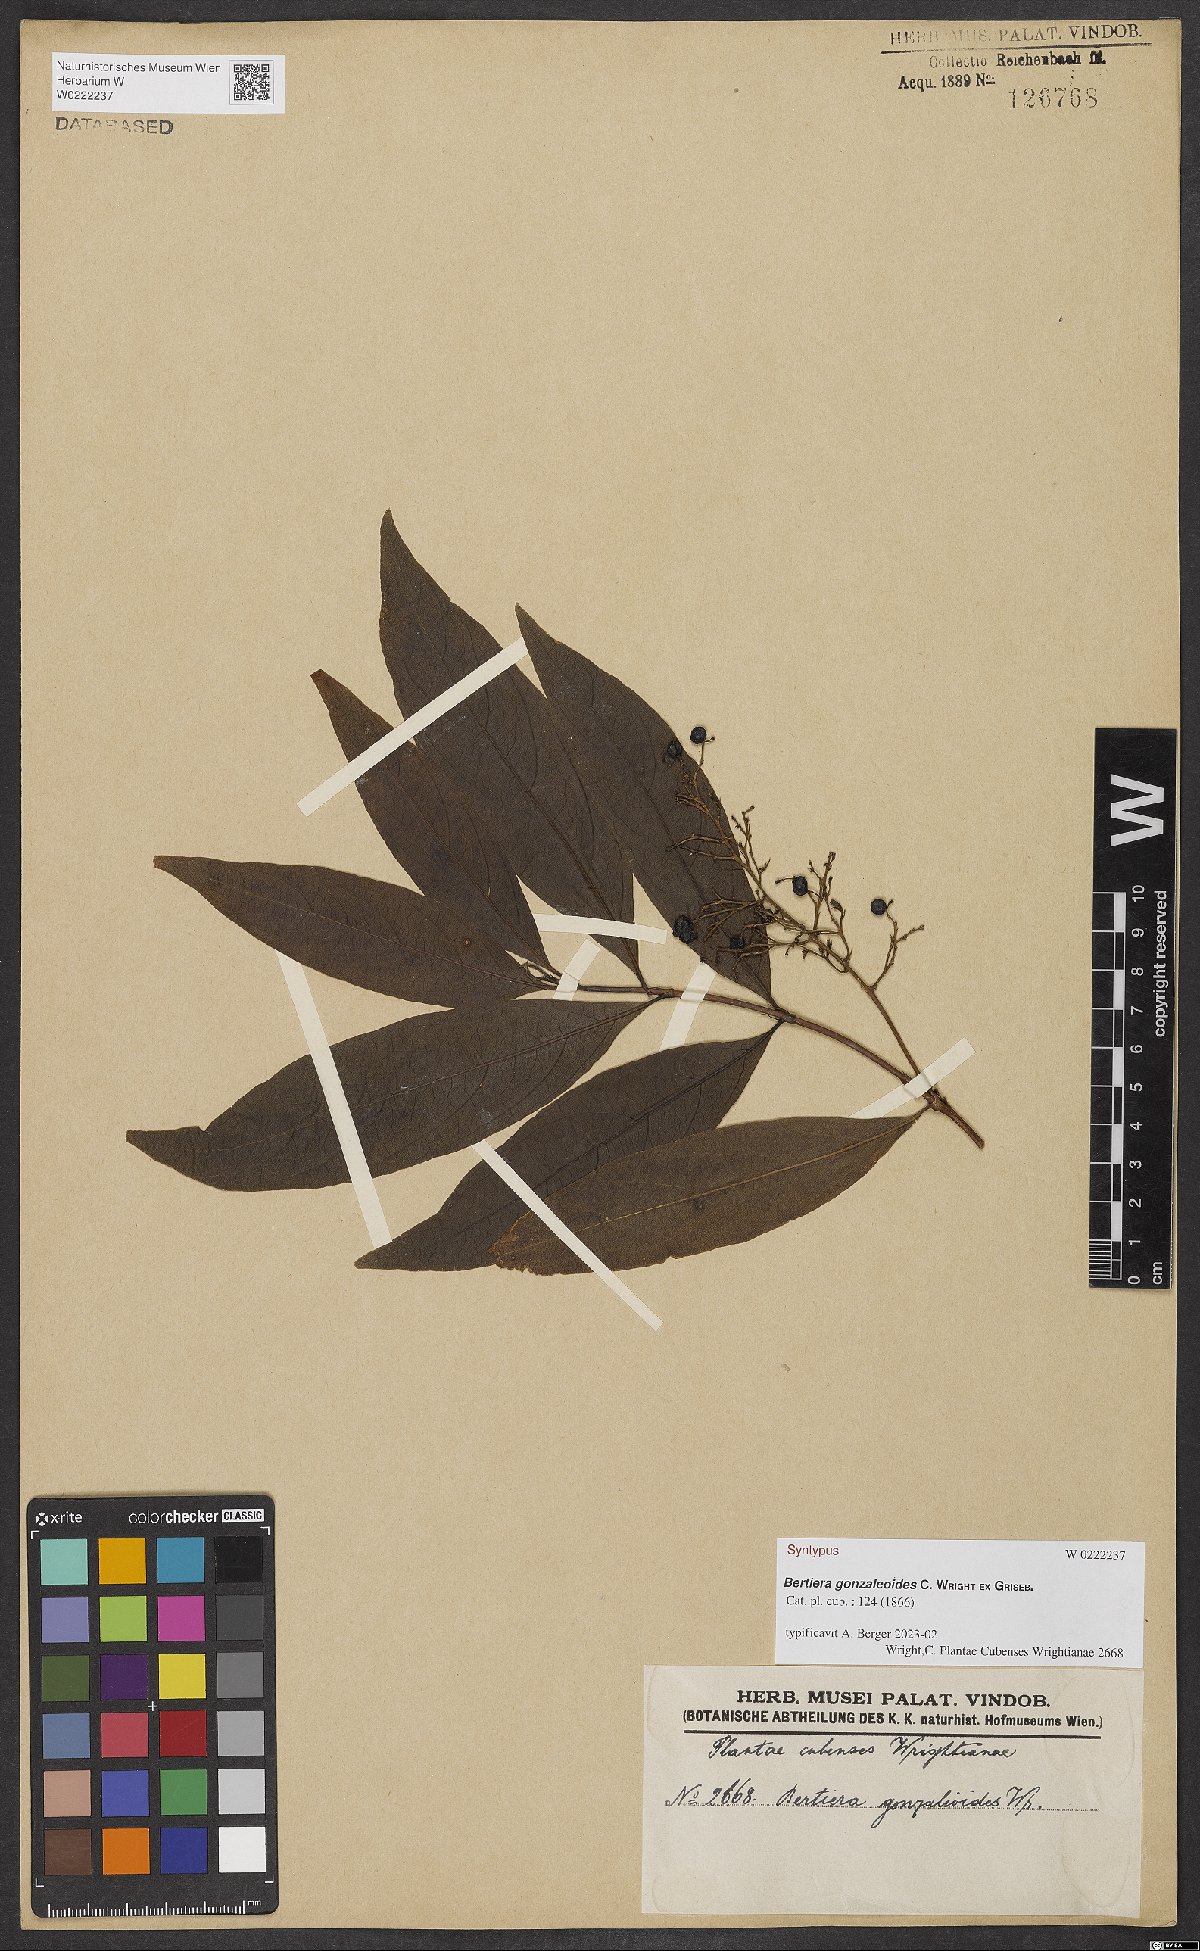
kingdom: Plantae
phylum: Tracheophyta
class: Magnoliopsida
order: Gentianales
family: Rubiaceae
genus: Bertiera
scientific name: Bertiera gonzaleoides
